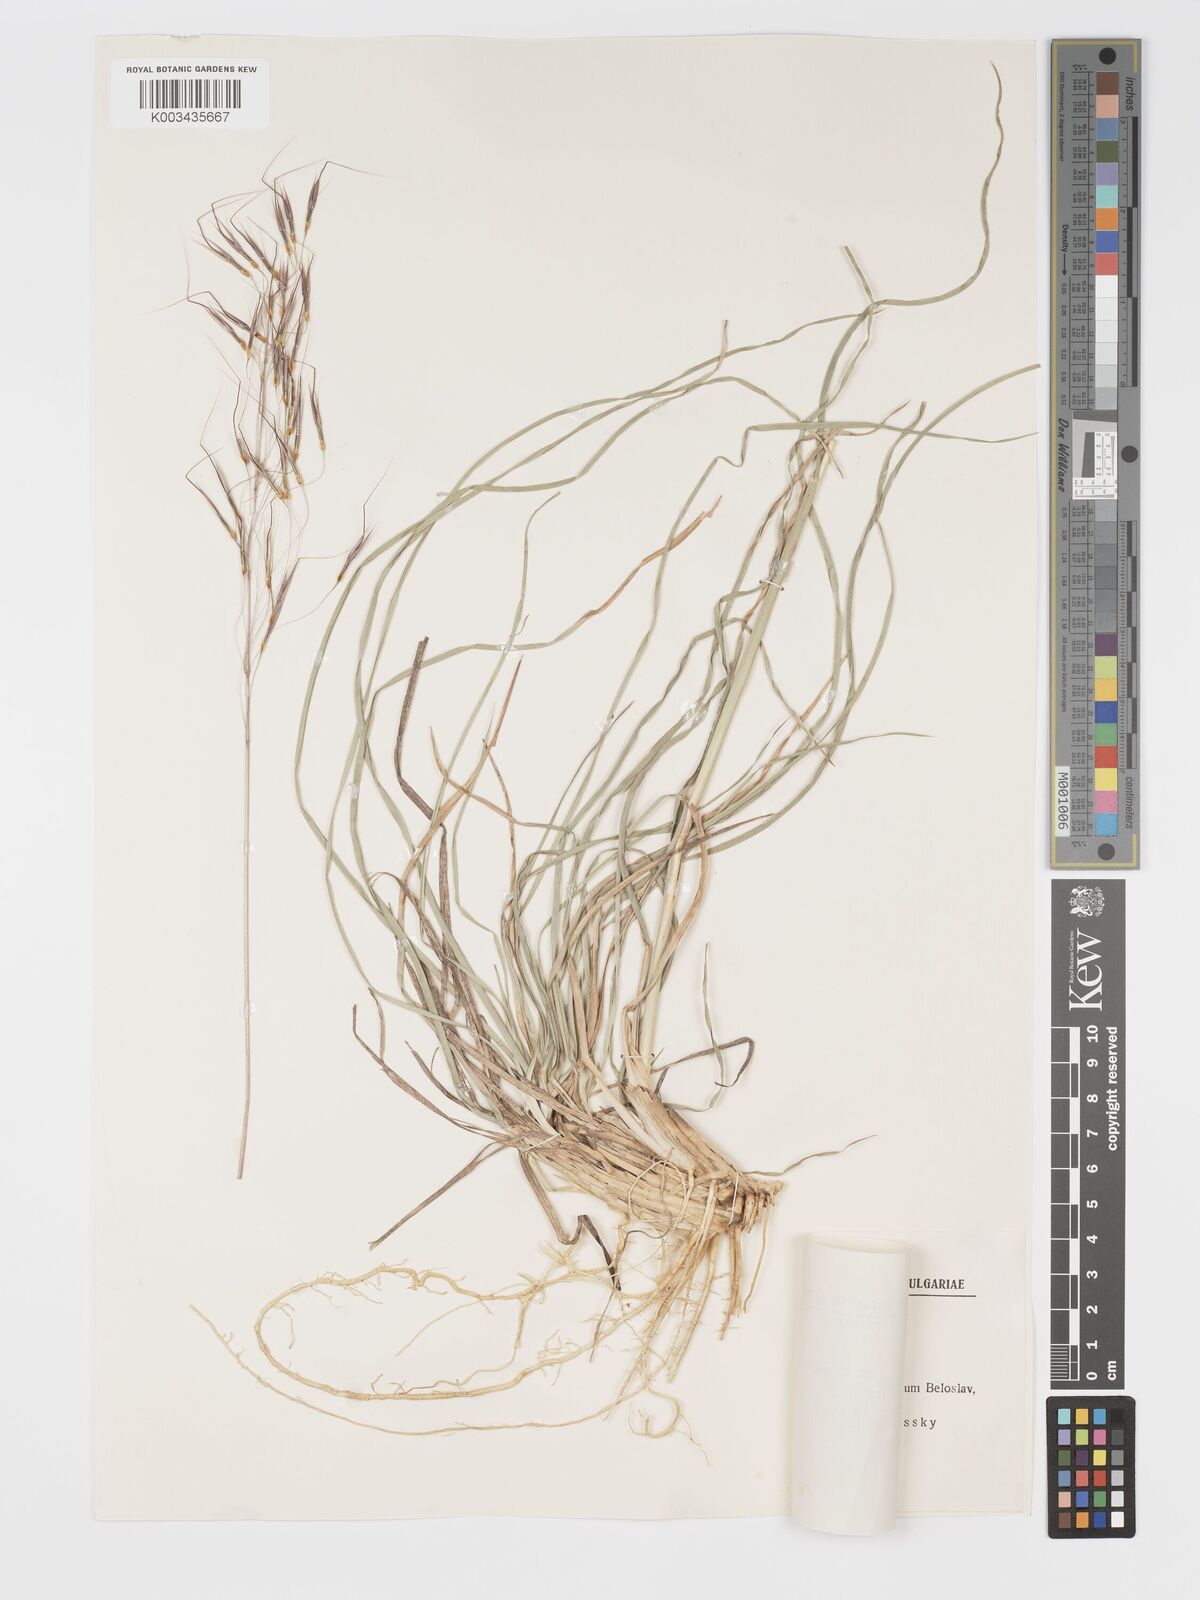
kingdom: Plantae
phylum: Tracheophyta
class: Liliopsida
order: Poales
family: Poaceae
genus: Chrysopogon
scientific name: Chrysopogon gryllus
